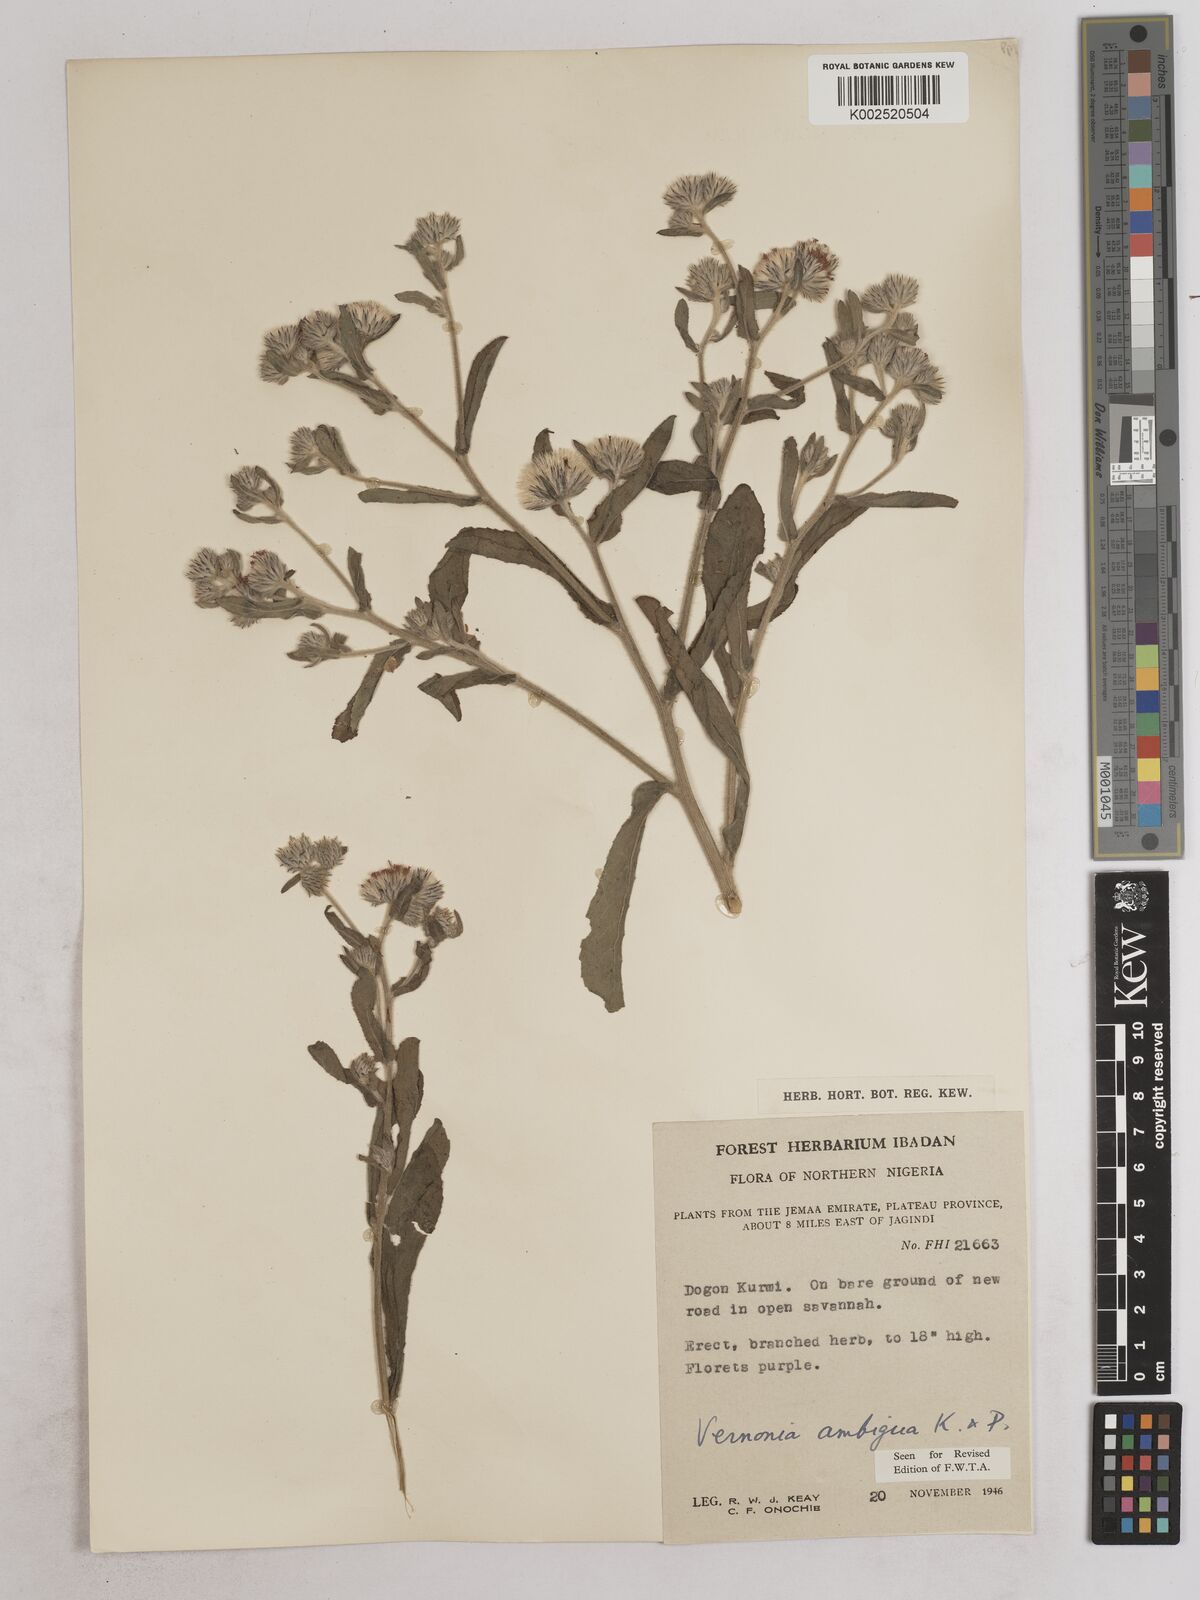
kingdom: Plantae
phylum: Tracheophyta
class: Magnoliopsida
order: Asterales
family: Asteraceae
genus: Vernoniastrum
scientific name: Vernoniastrum ambiguum
